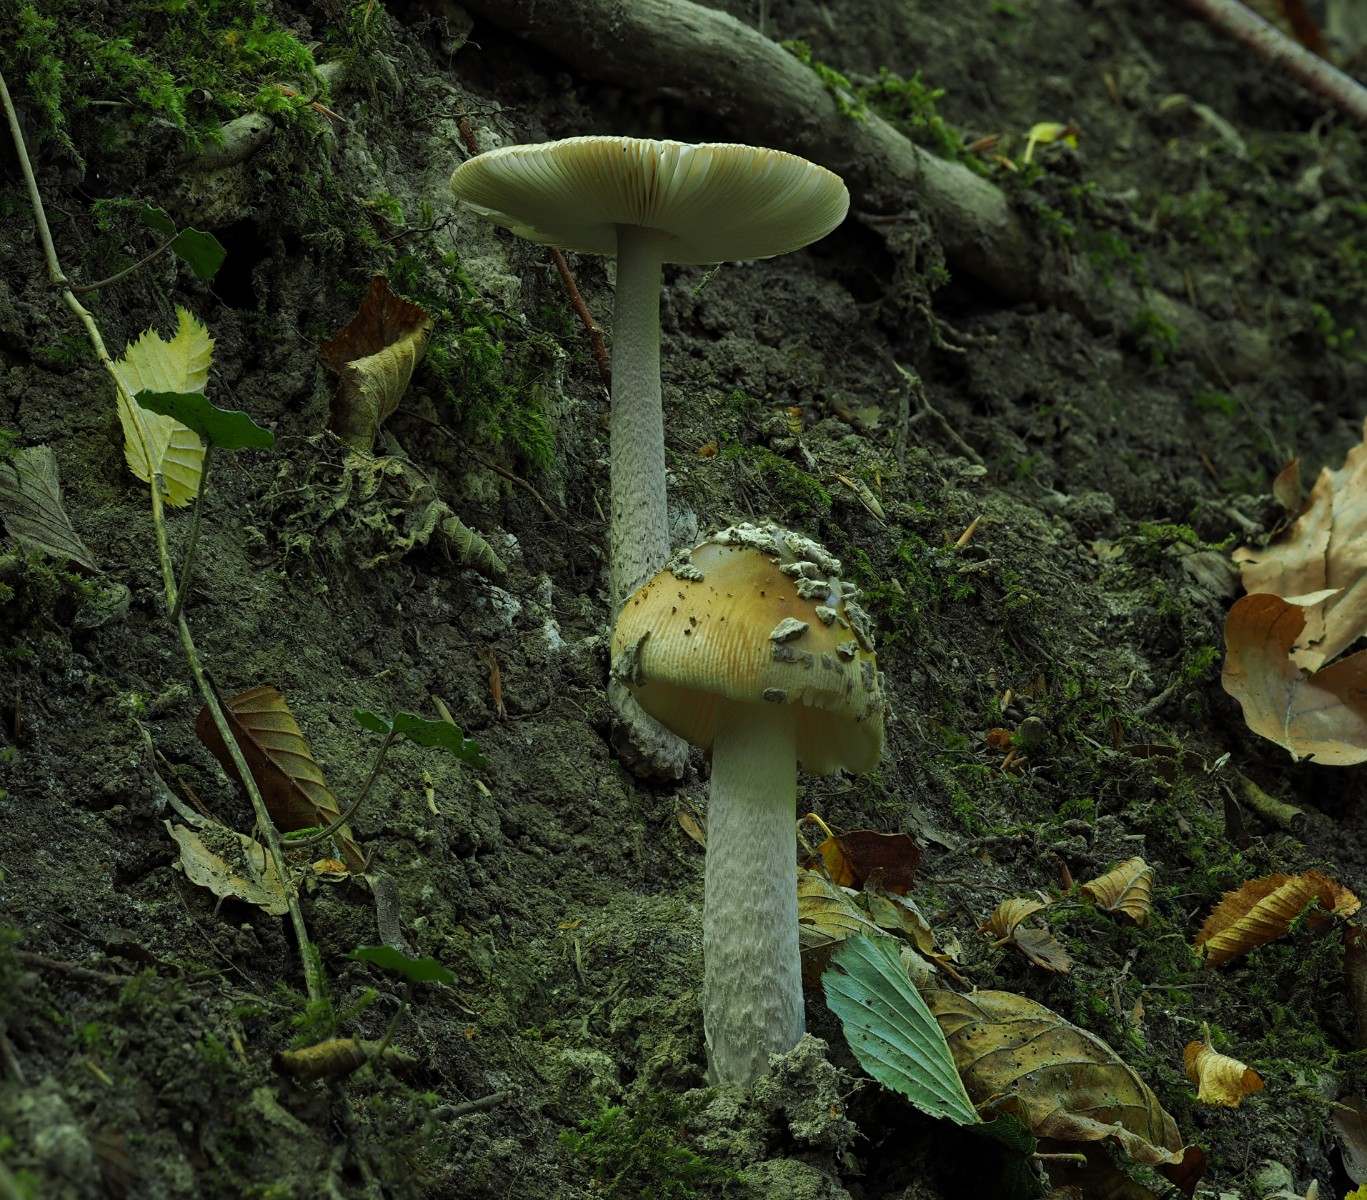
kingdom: Fungi
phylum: Basidiomycota
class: Agaricomycetes
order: Agaricales
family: Amanitaceae
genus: Amanita
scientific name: Amanita ceciliae
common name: stor kam-fluesvamp
